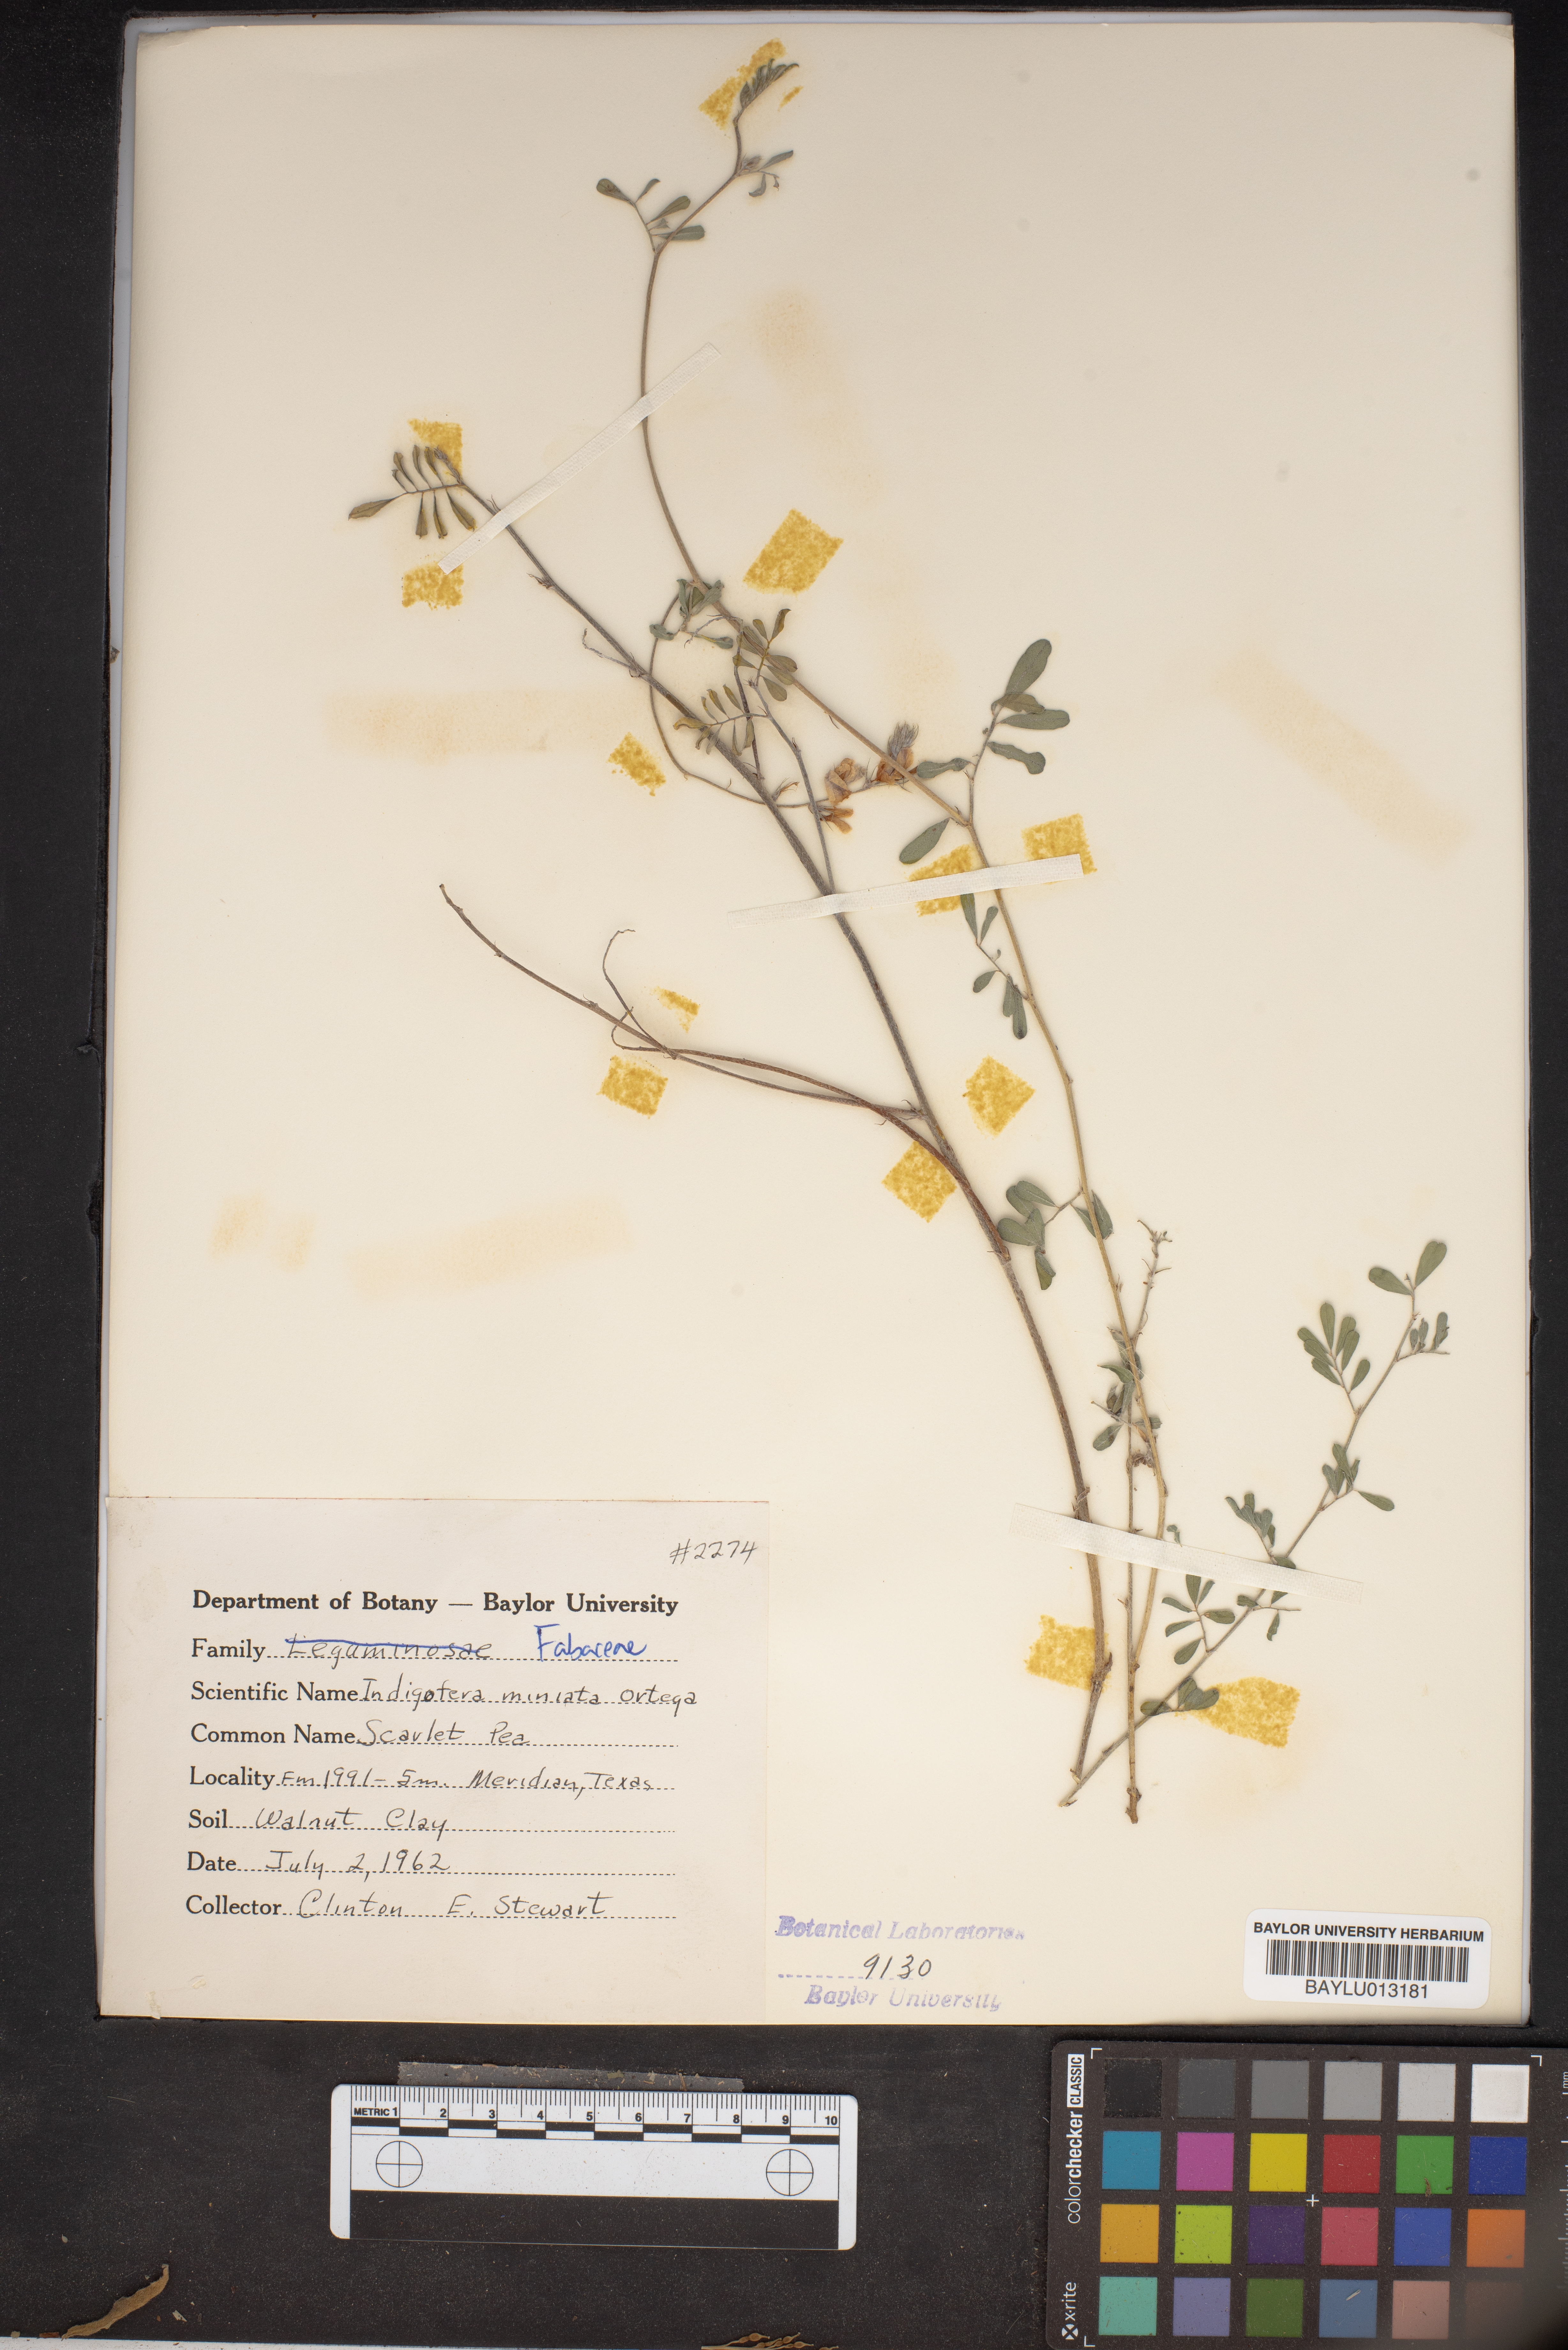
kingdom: Plantae
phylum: Tracheophyta
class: Magnoliopsida
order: Fabales
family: Fabaceae
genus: Indigofera
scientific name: Indigofera miniata
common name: Coast indigo
